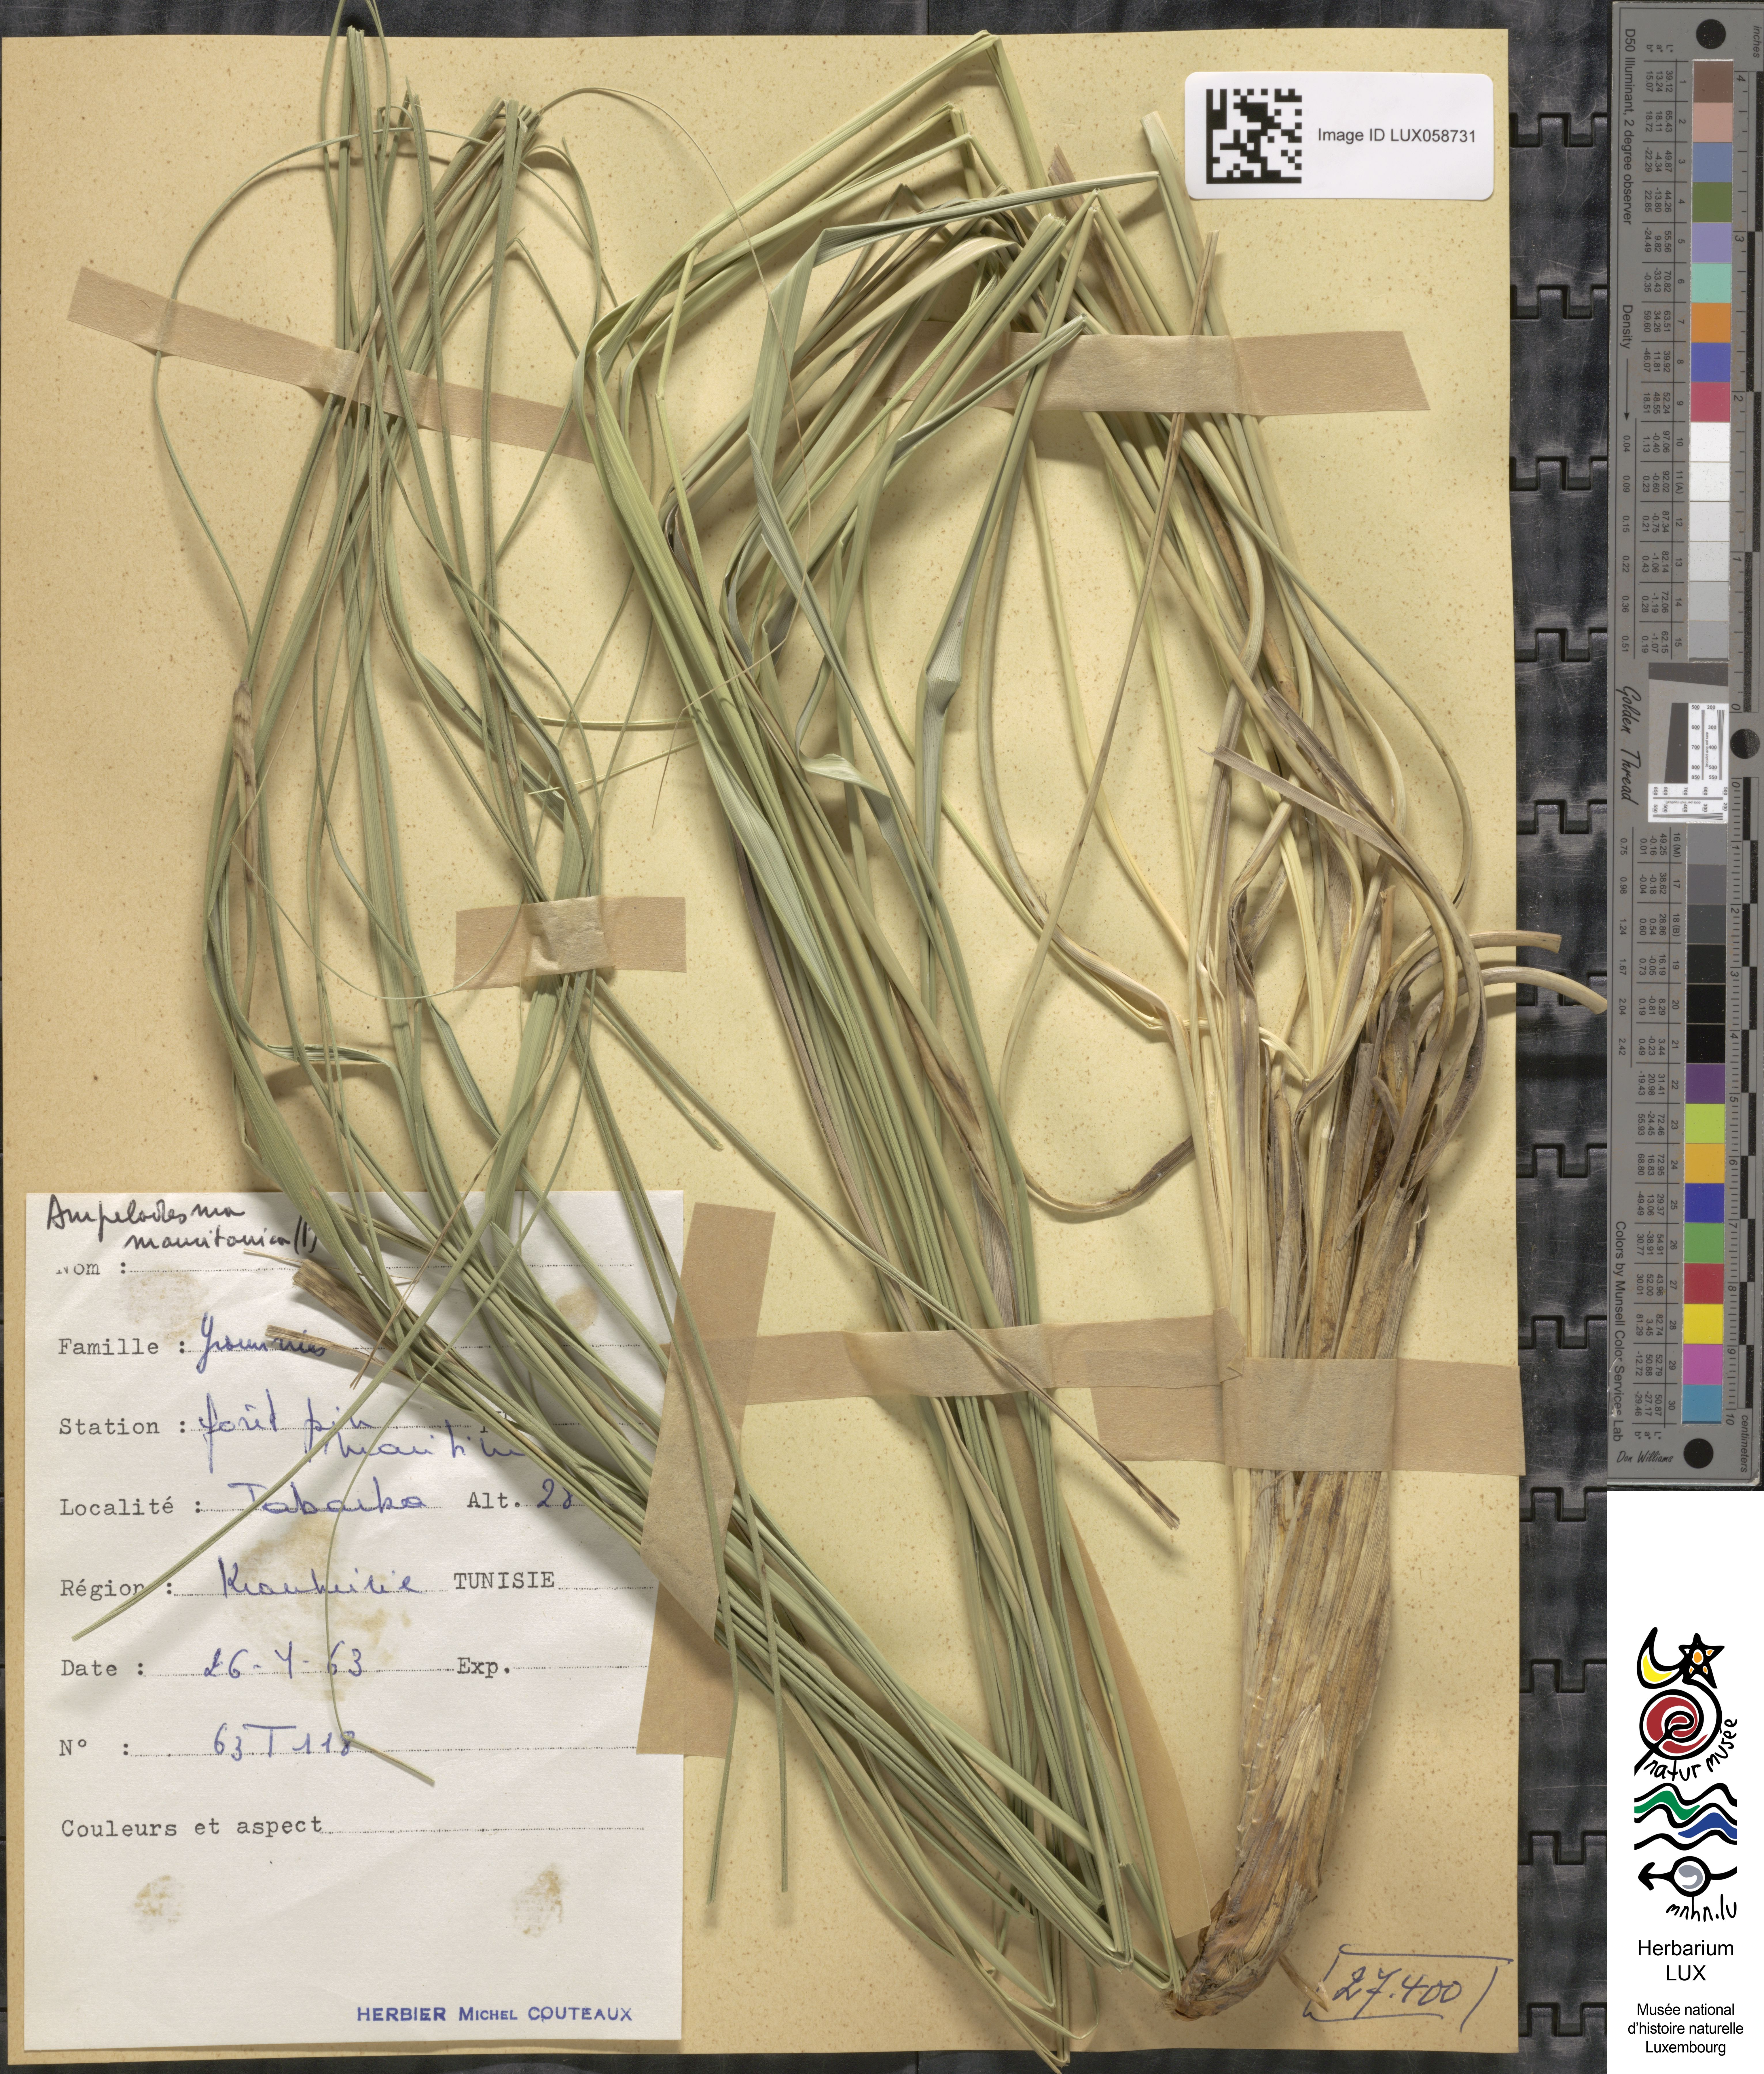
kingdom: Plantae
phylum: Tracheophyta
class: Liliopsida
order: Poales
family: Poaceae
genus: Ampelodesmos
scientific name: Ampelodesmos mauritanicus
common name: Mauritanian grass
